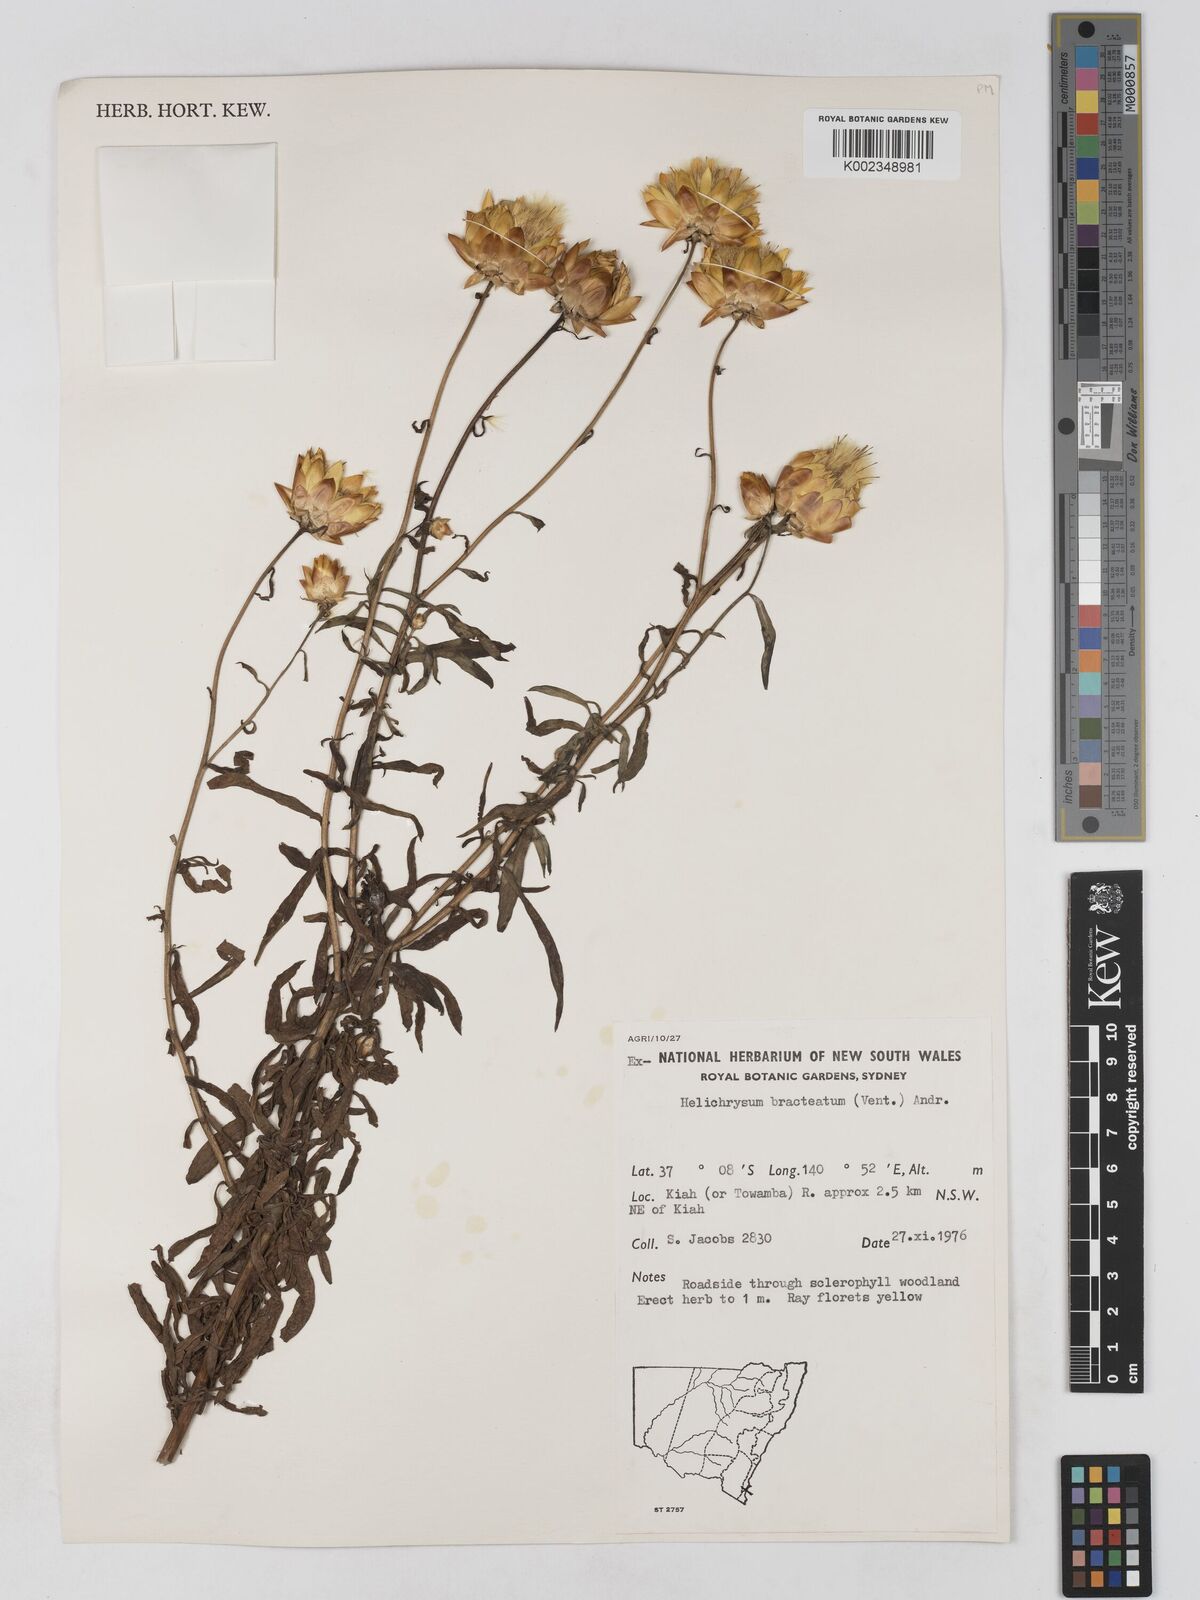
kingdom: Plantae
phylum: Tracheophyta
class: Magnoliopsida
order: Asterales
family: Asteraceae
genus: Xerochrysum
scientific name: Xerochrysum bracteatum
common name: Bracted strawflower
